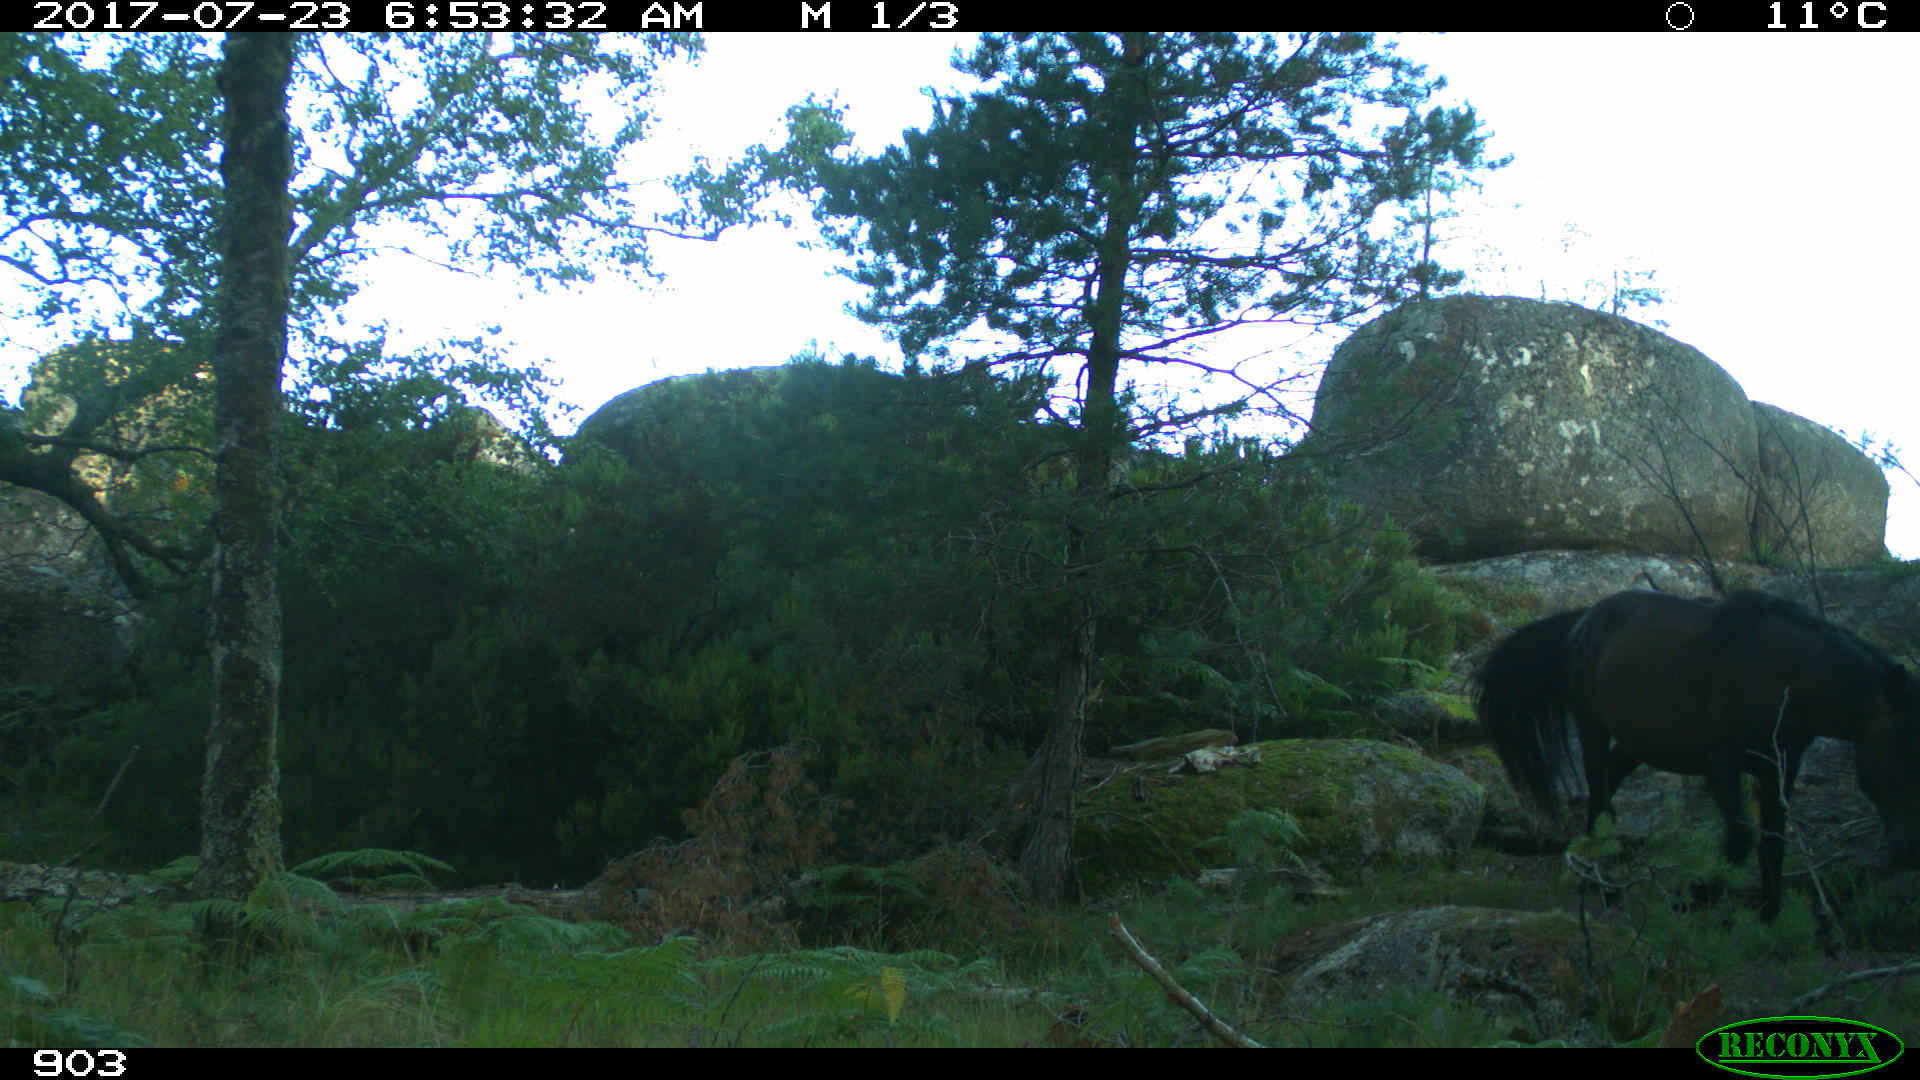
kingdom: Animalia
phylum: Chordata
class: Mammalia
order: Perissodactyla
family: Equidae
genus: Equus
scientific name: Equus caballus
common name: Horse
